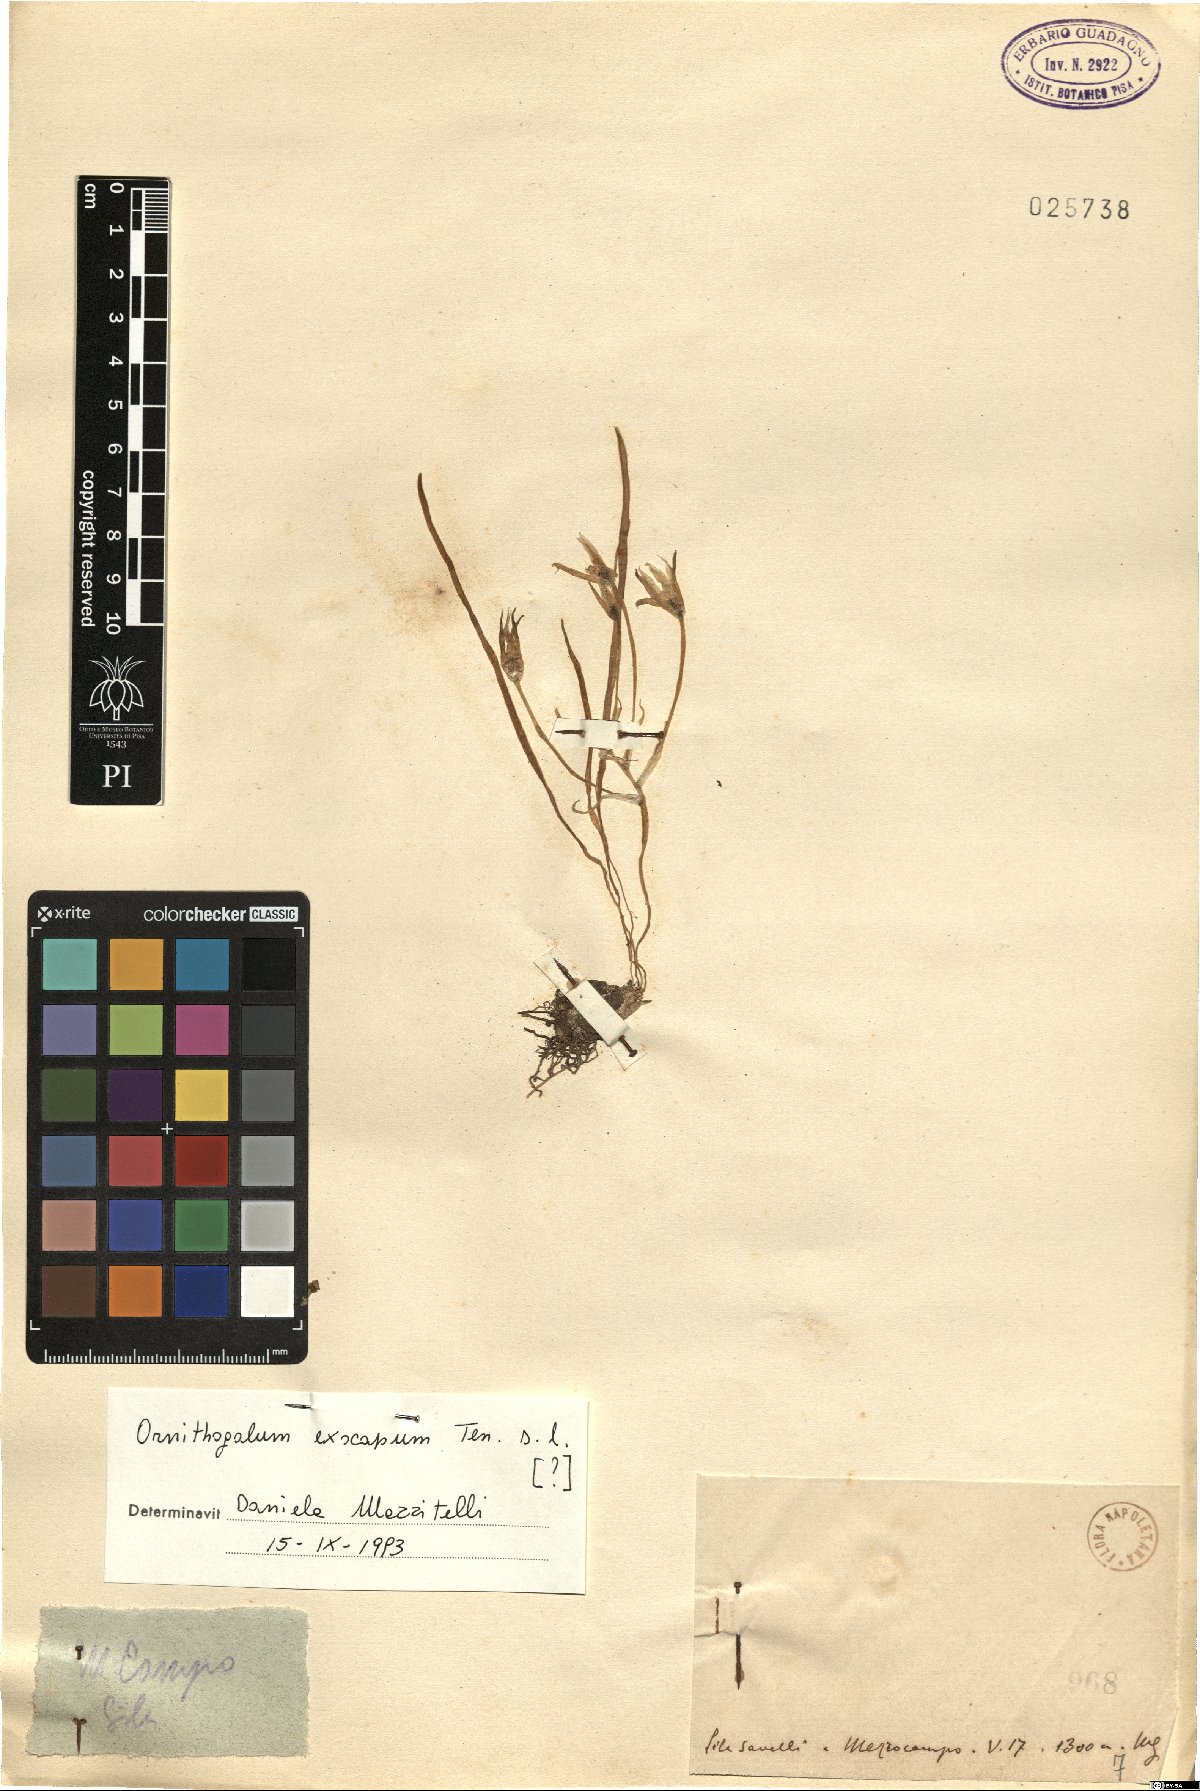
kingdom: Plantae
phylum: Tracheophyta
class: Liliopsida
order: Asparagales
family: Asparagaceae
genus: Ornithogalum
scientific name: Ornithogalum exscapum
